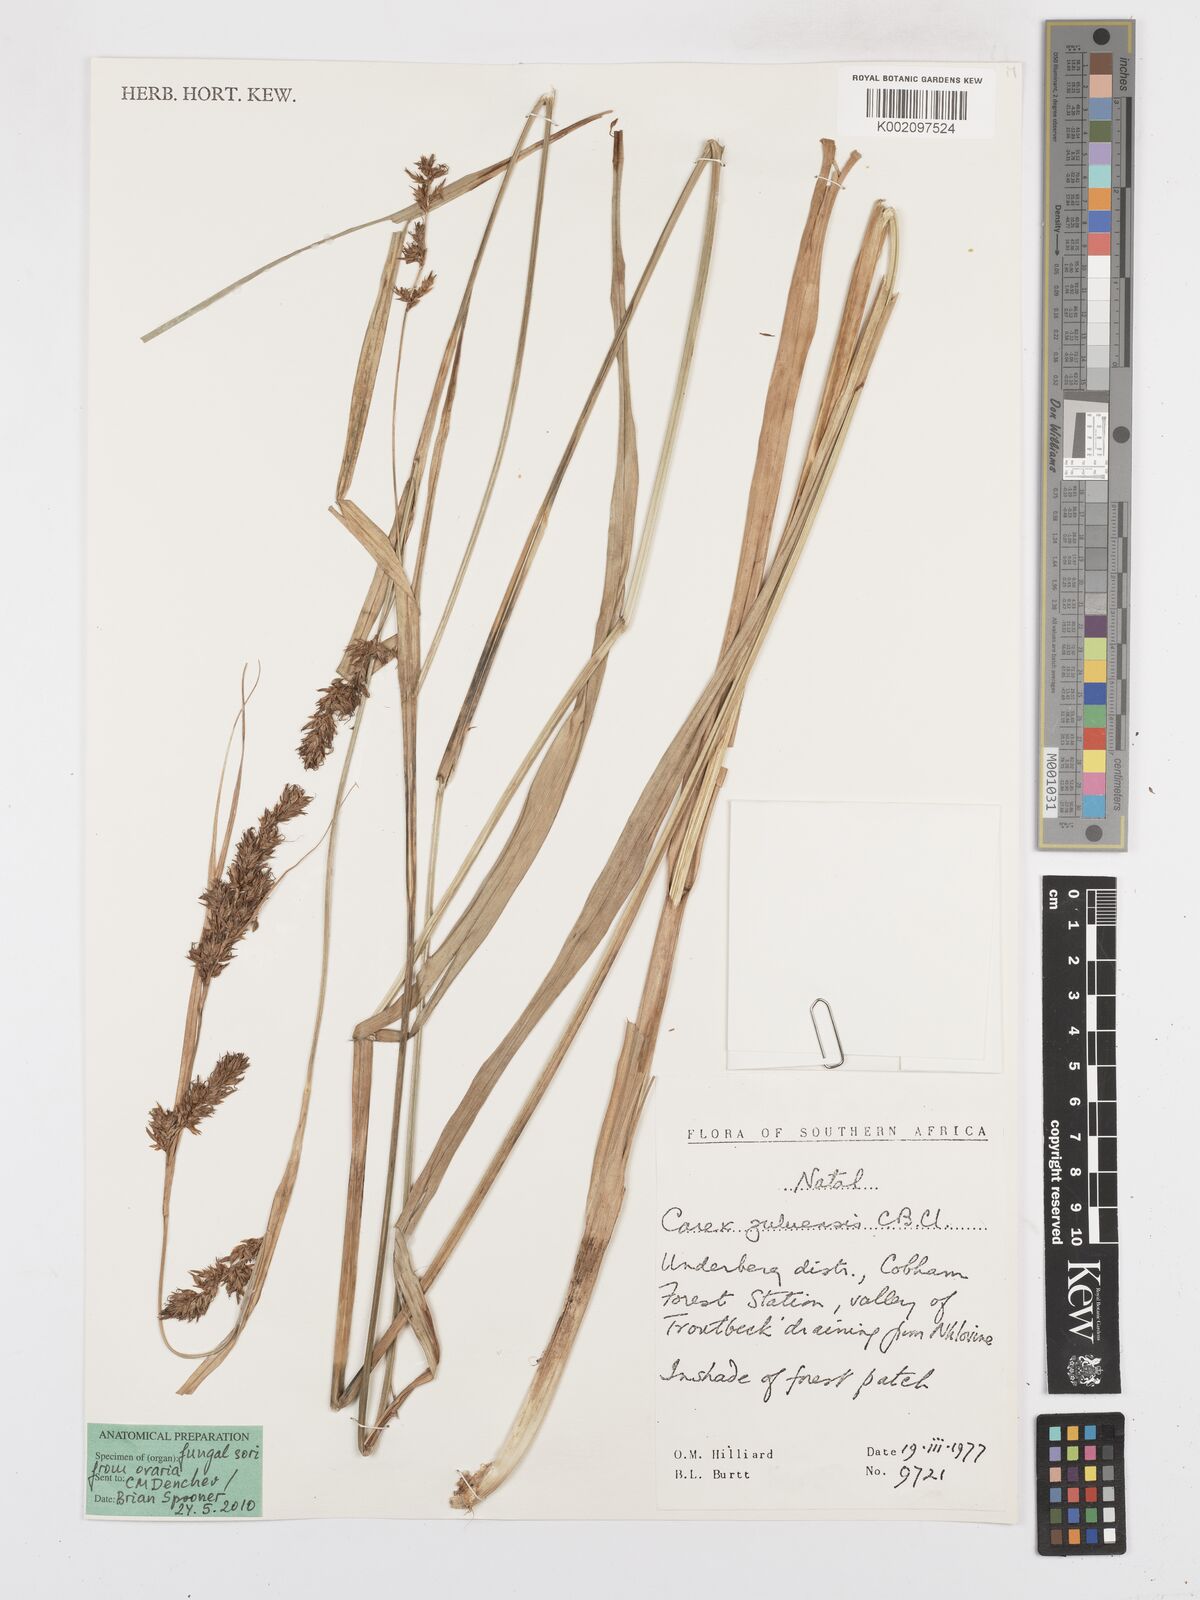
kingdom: Plantae
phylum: Tracheophyta
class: Liliopsida
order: Poales
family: Cyperaceae
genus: Carex
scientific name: Carex steudneri
